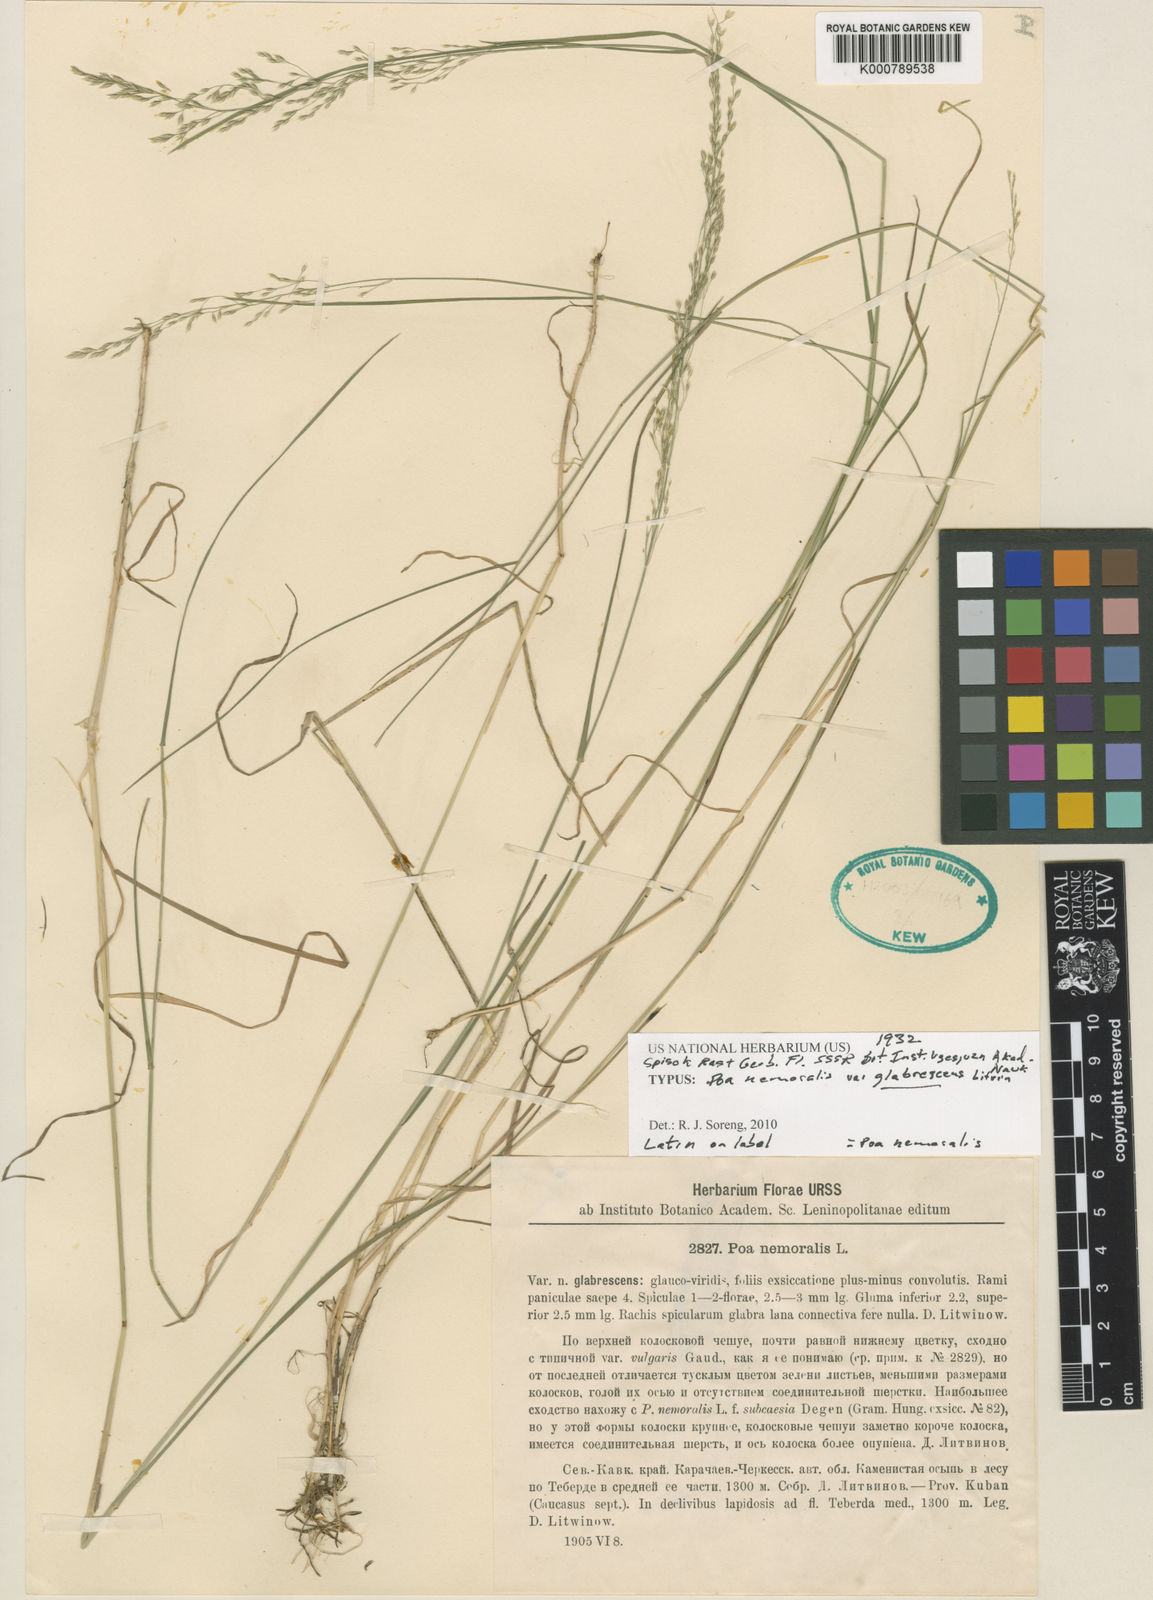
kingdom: Plantae
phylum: Tracheophyta
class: Liliopsida
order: Poales
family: Poaceae
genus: Poa
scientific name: Poa nemoralis
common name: Wood bluegrass
